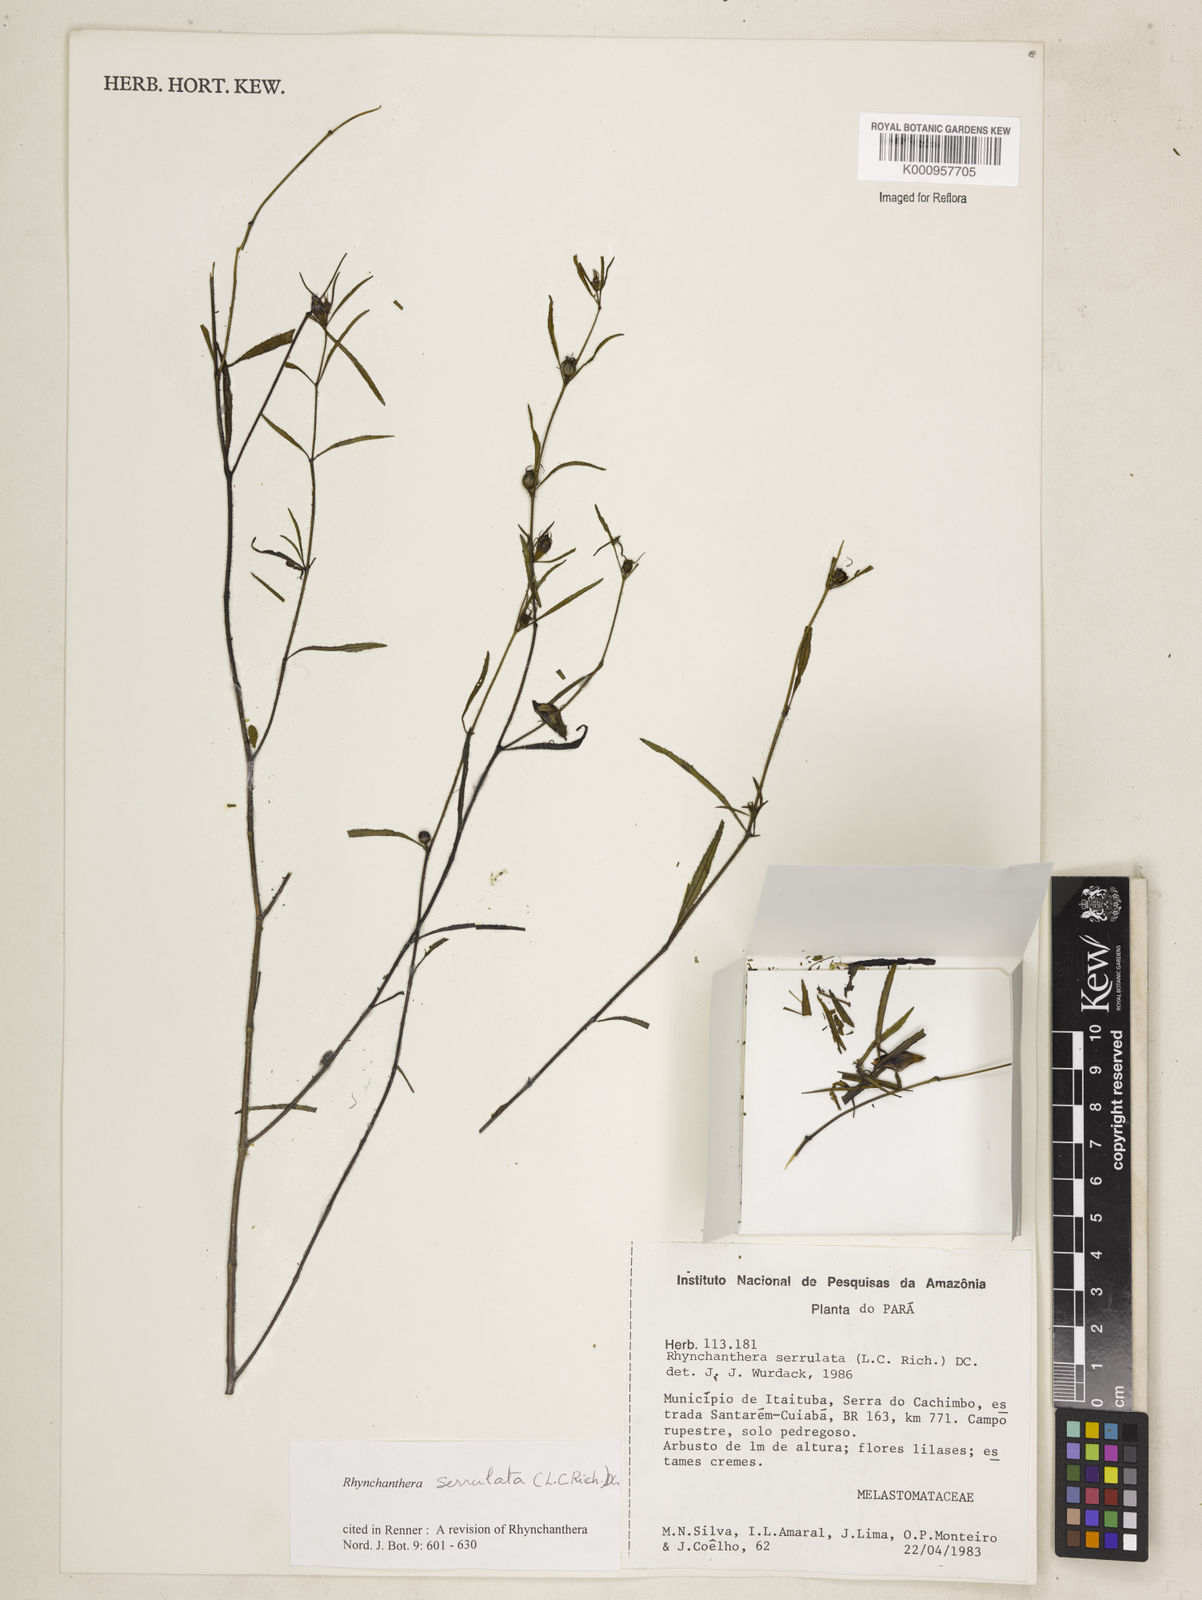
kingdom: Plantae
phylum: Tracheophyta
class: Magnoliopsida
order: Myrtales
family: Melastomataceae
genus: Rhynchanthera
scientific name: Rhynchanthera serrulata
